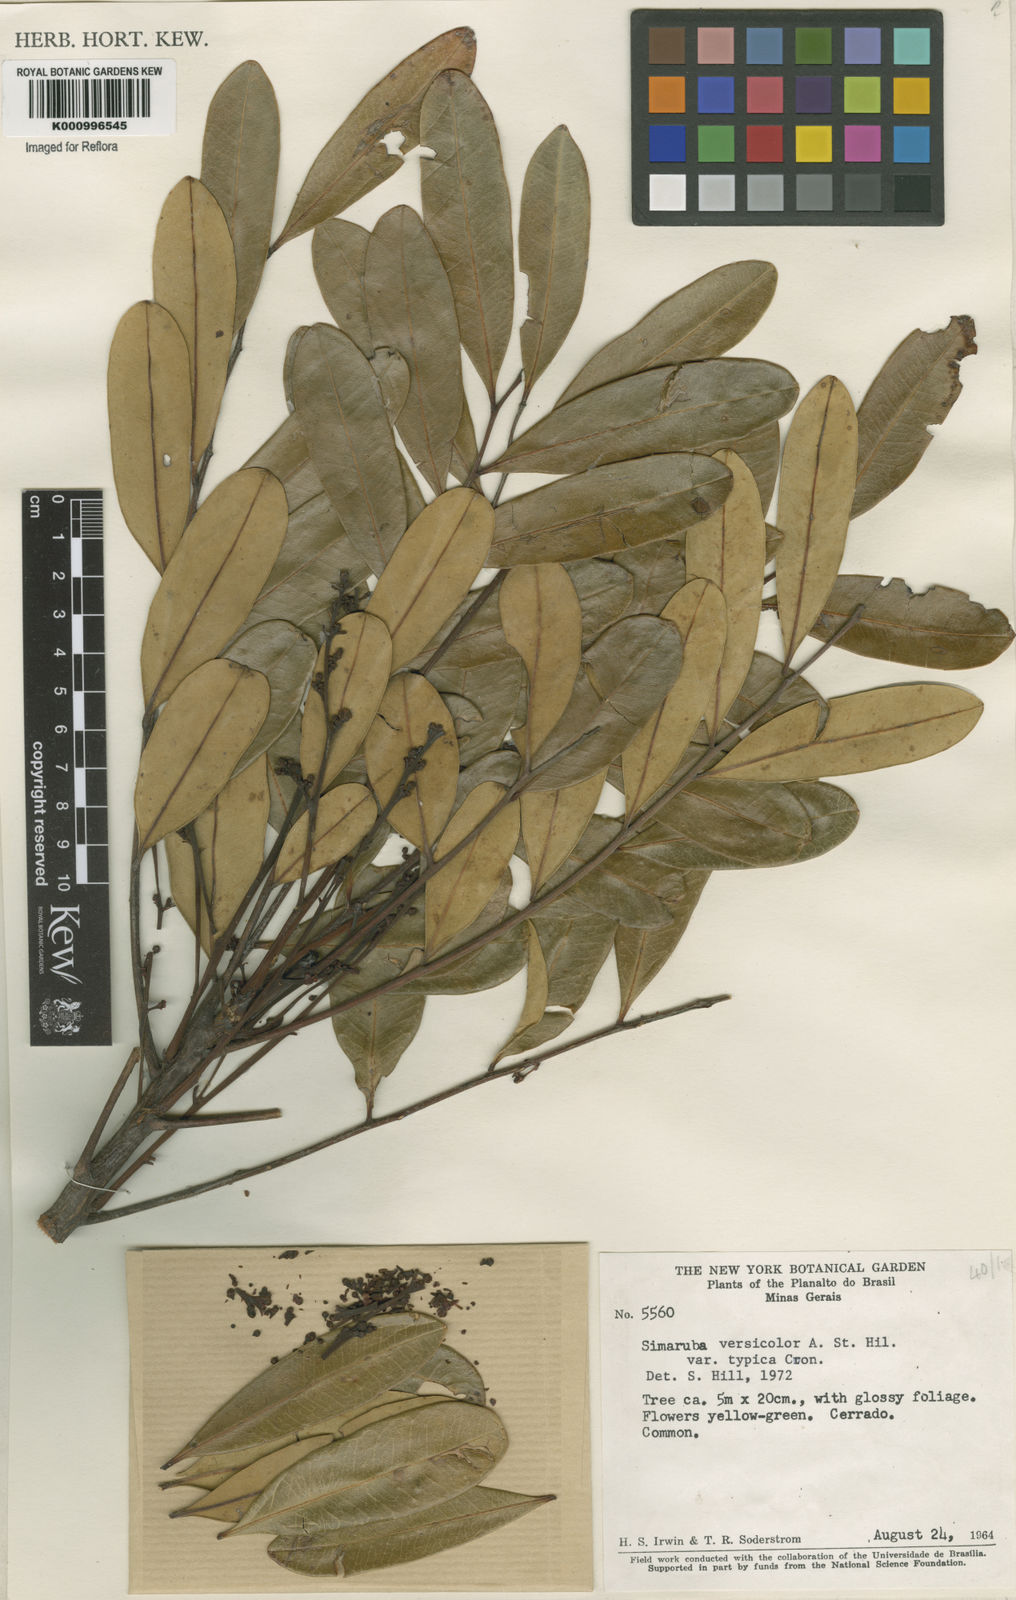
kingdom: Plantae
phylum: Tracheophyta
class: Magnoliopsida
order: Sapindales
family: Simaroubaceae
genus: Simarouba
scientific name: Simarouba versicolor
